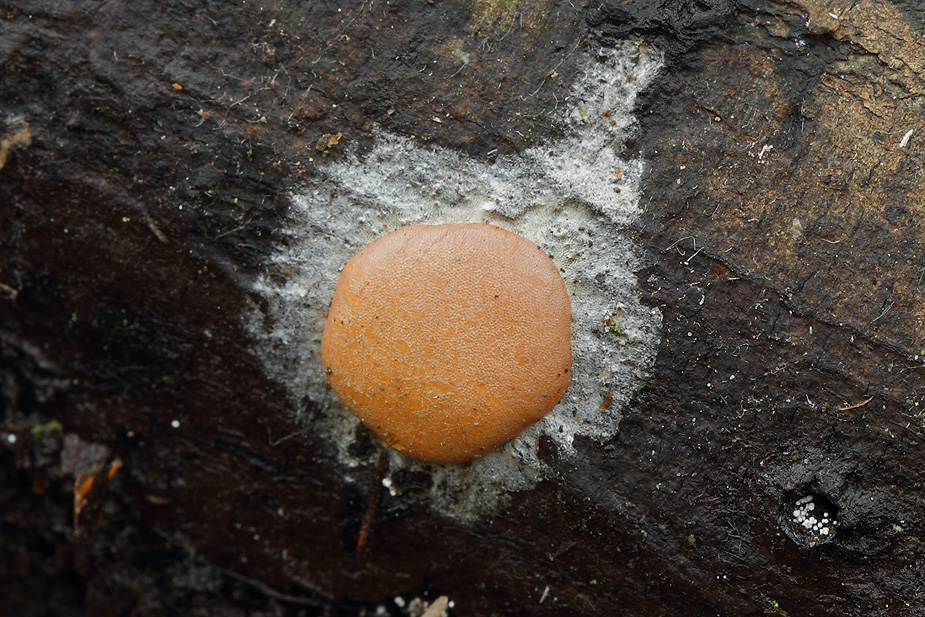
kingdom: Protozoa
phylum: Mycetozoa
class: Myxomycetes
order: Trichiales
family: Dictydiaethaliaceae
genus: Dictydiaethalium
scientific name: Dictydiaethalium plumbeum
